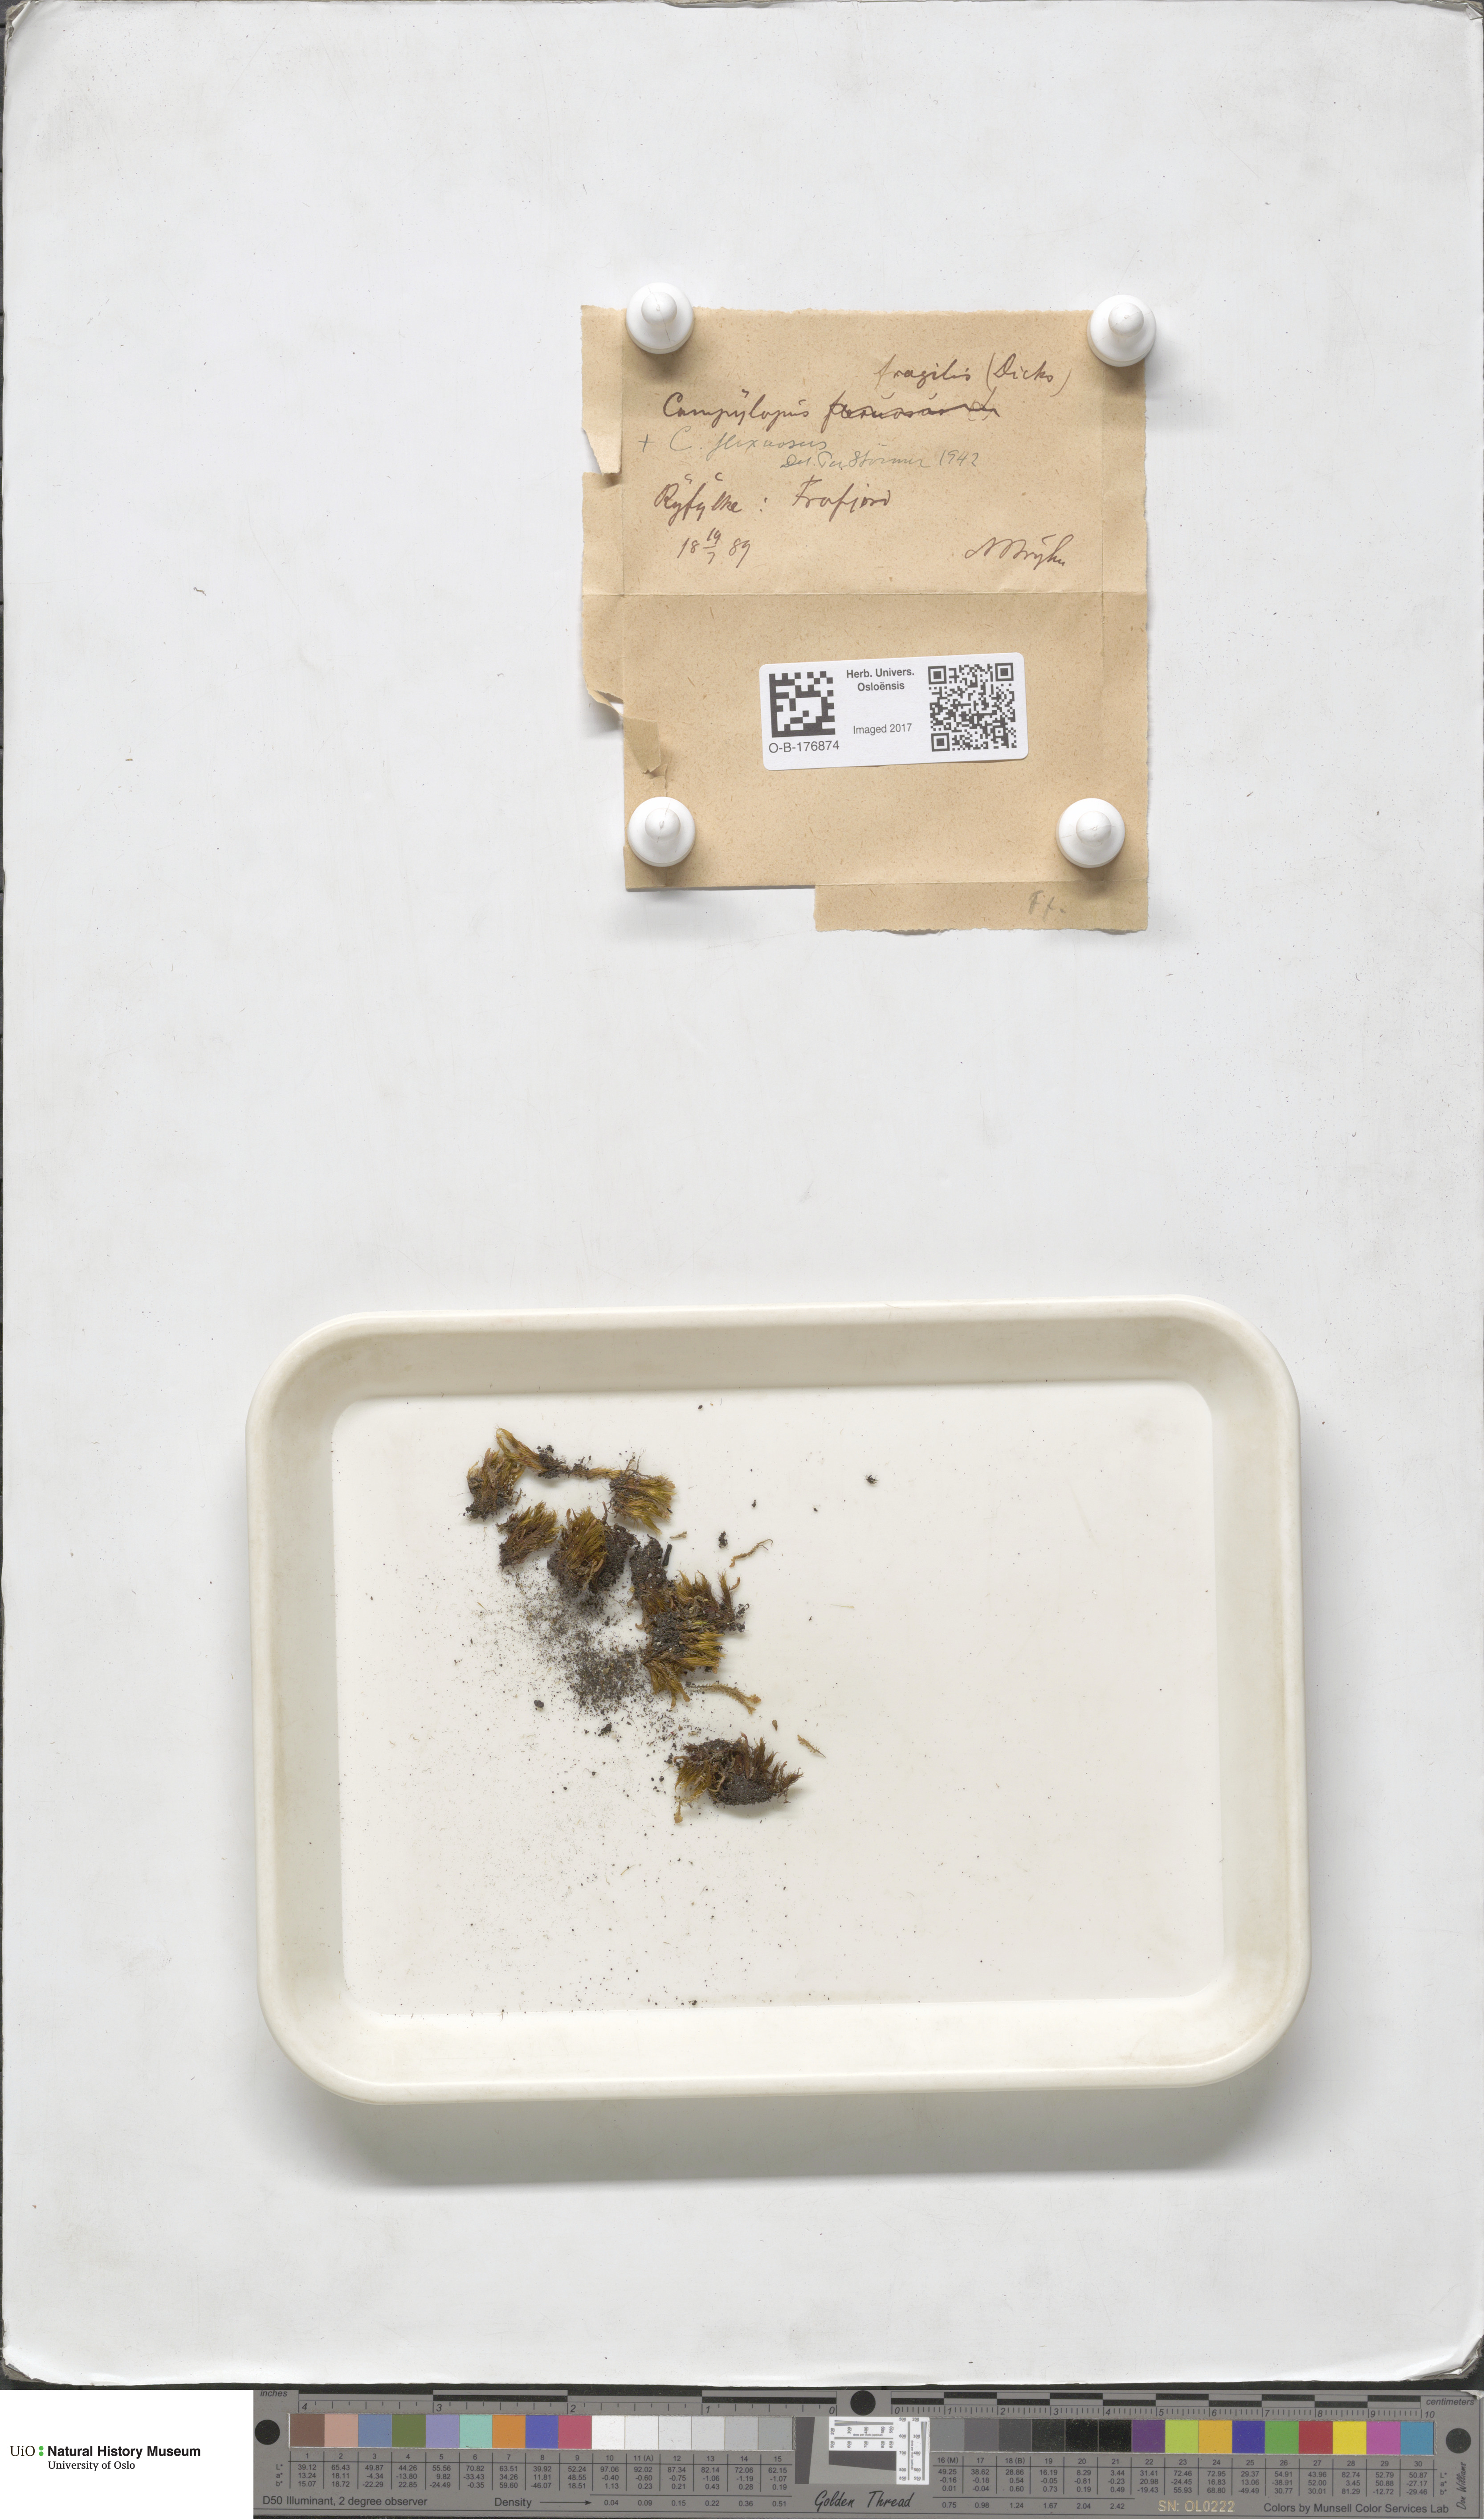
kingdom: Plantae
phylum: Bryophyta
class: Bryopsida
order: Dicranales
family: Leucobryaceae
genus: Campylopus
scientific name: Campylopus fragilis
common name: Brittle swan-neck moss
